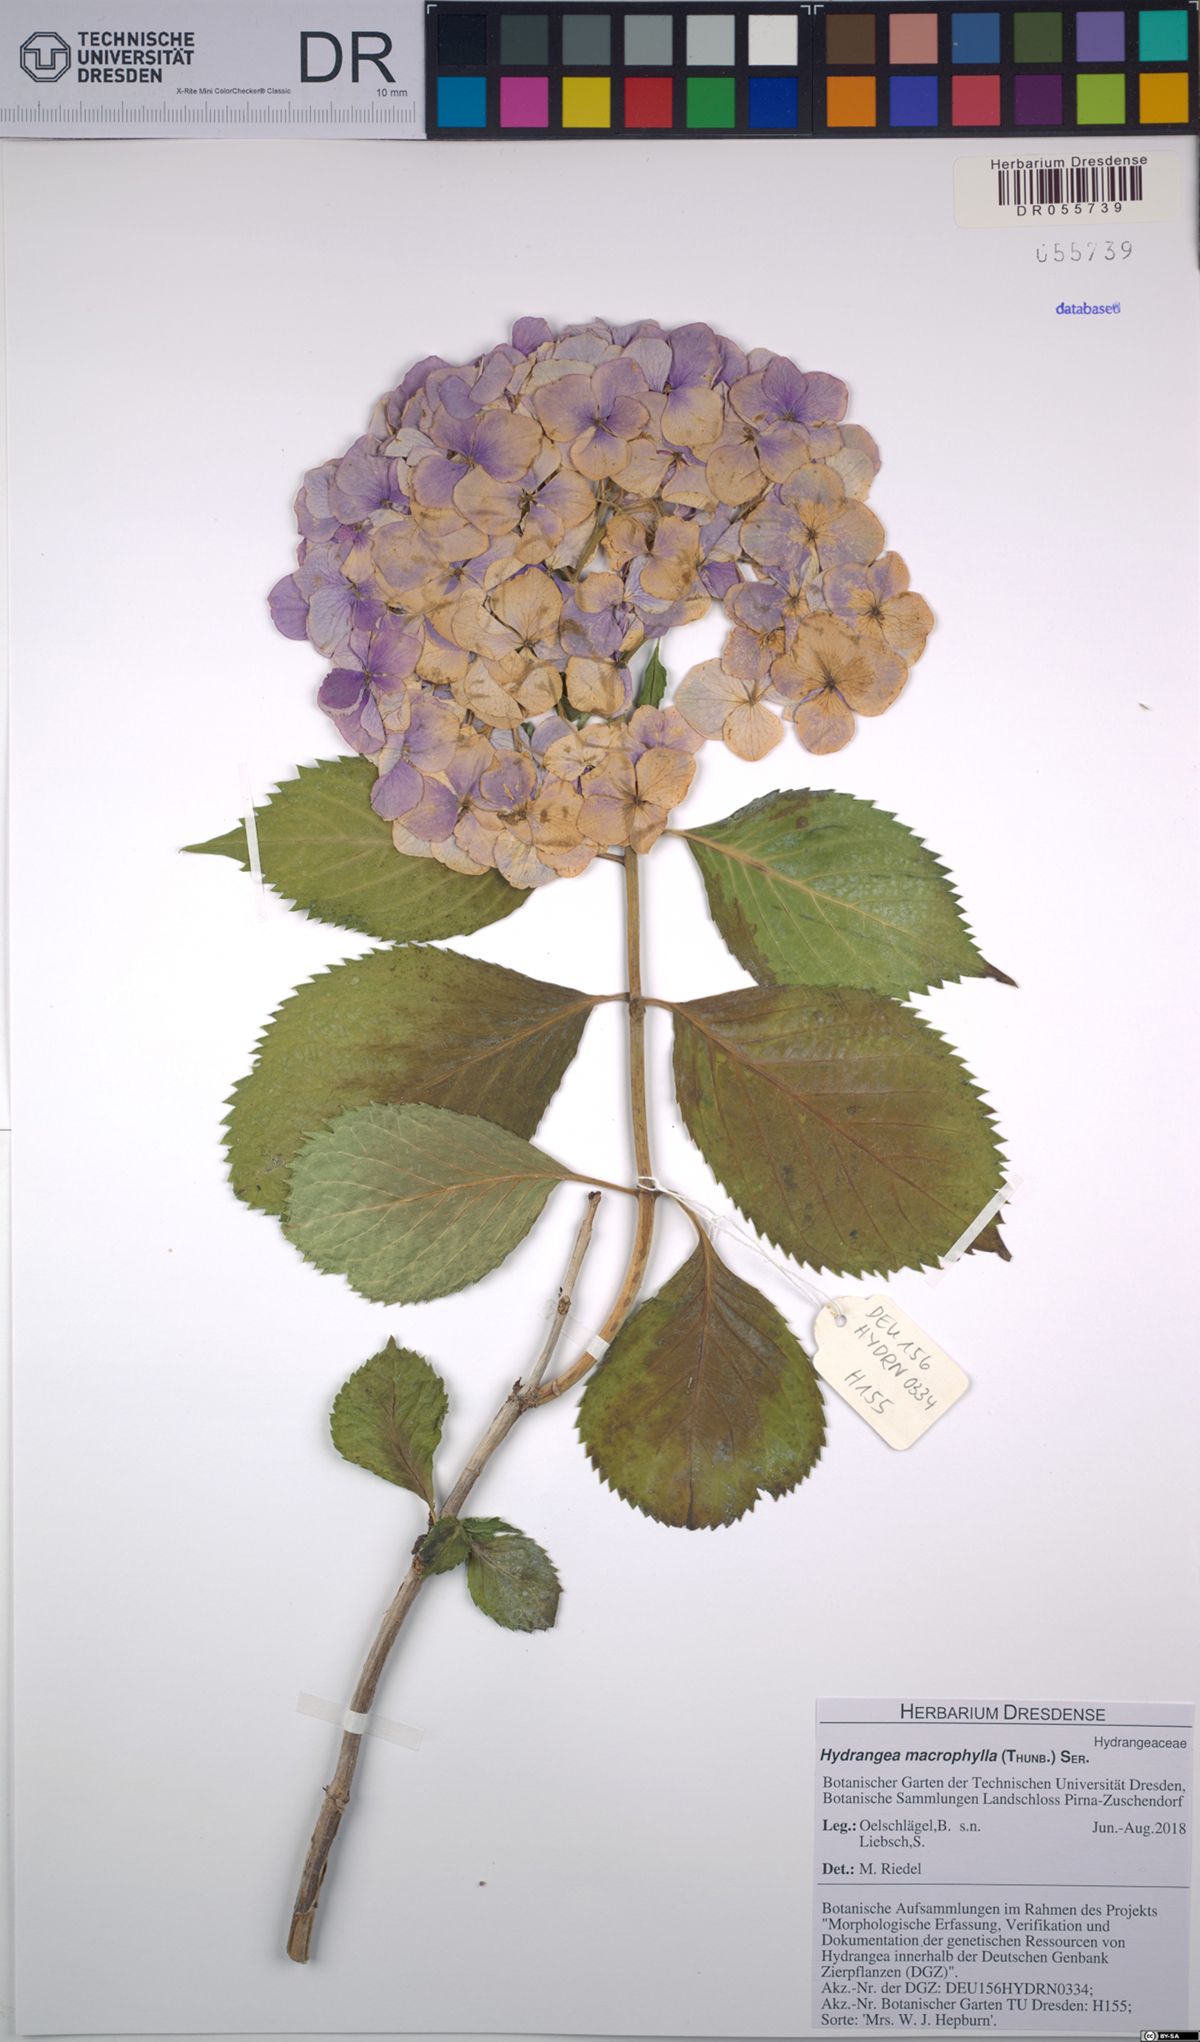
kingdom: Plantae
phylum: Tracheophyta
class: Magnoliopsida
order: Cornales
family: Hydrangeaceae
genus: Hydrangea
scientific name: Hydrangea macrophylla
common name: Hydrangea
